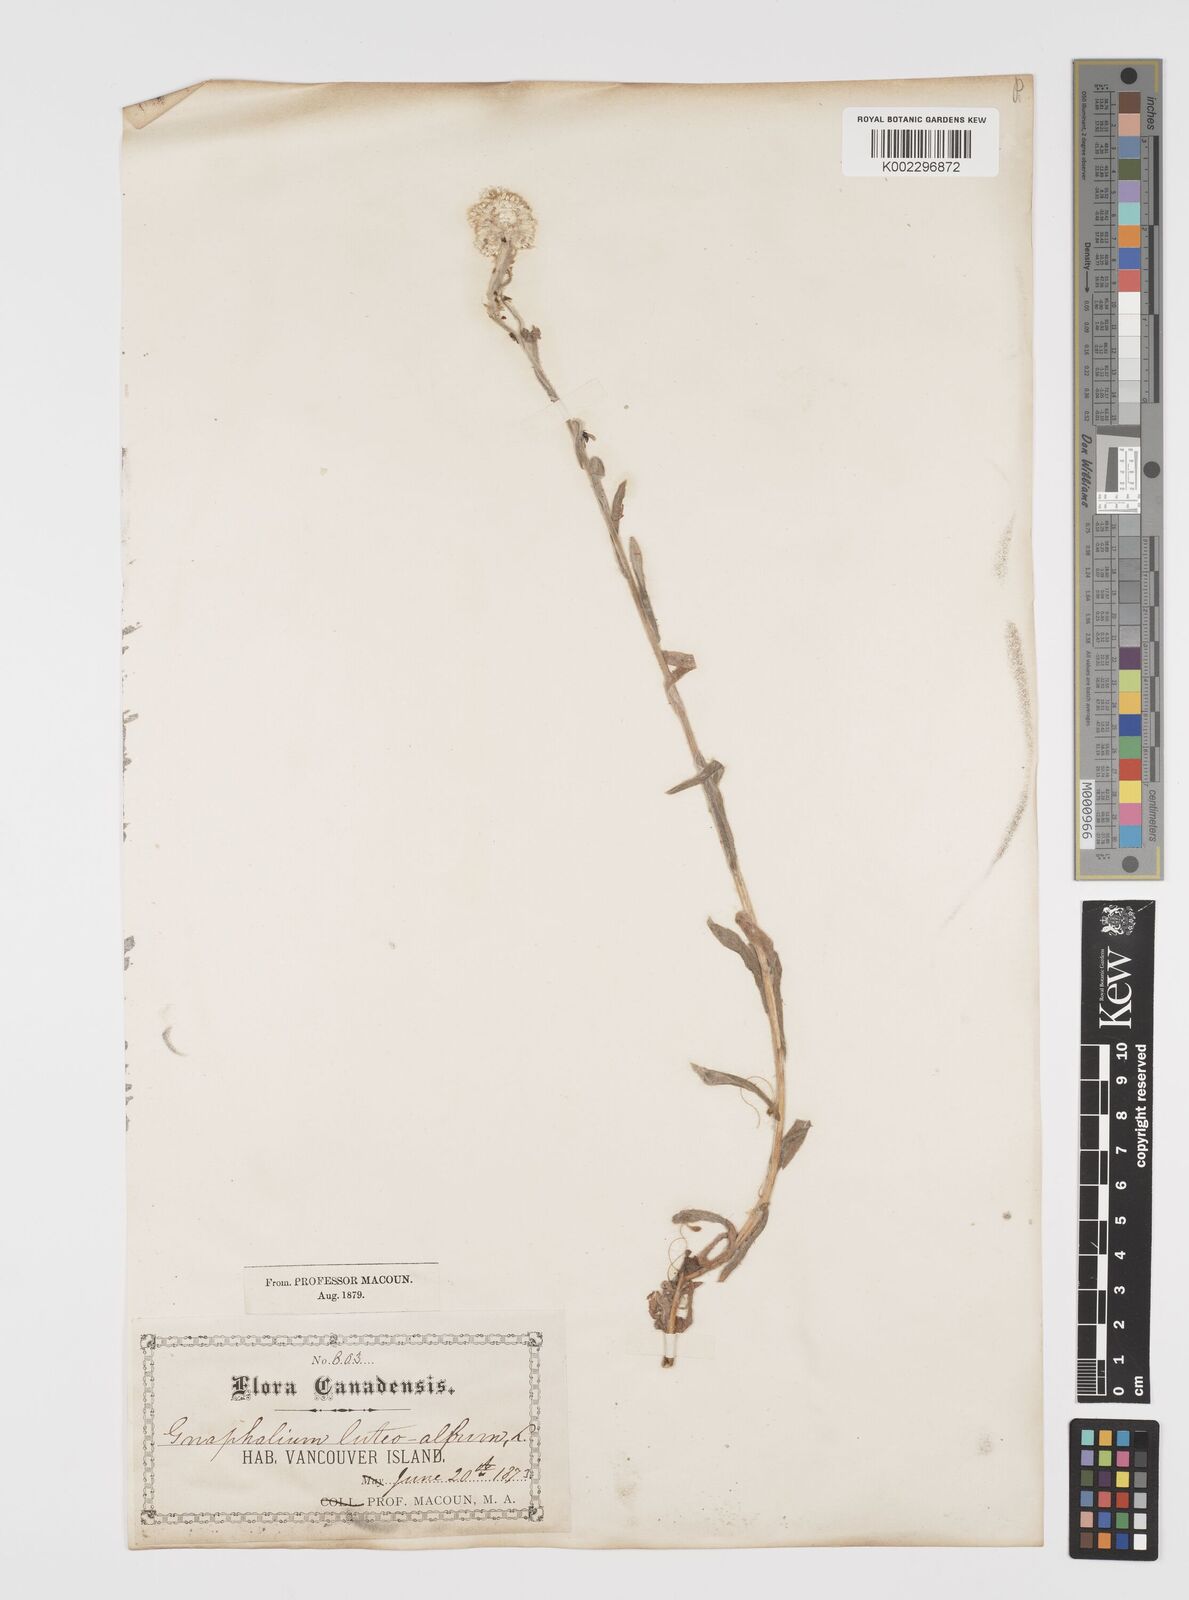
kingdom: Plantae
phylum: Tracheophyta
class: Magnoliopsida
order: Asterales
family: Asteraceae
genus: Helichrysum
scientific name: Helichrysum luteoalbum
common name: Daisy
